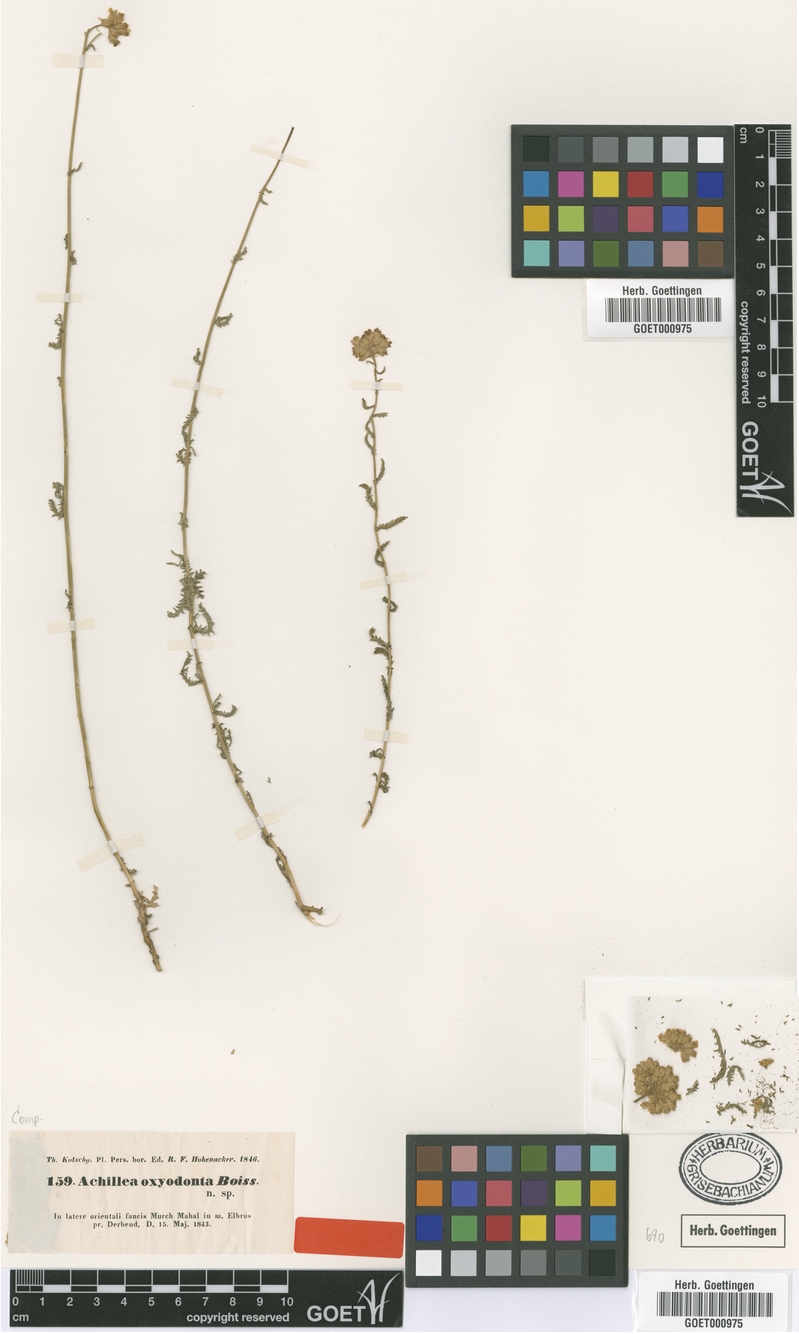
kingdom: Plantae
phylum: Tracheophyta
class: Magnoliopsida
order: Asterales
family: Asteraceae
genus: Achillea
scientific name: Achillea oxyodonta
